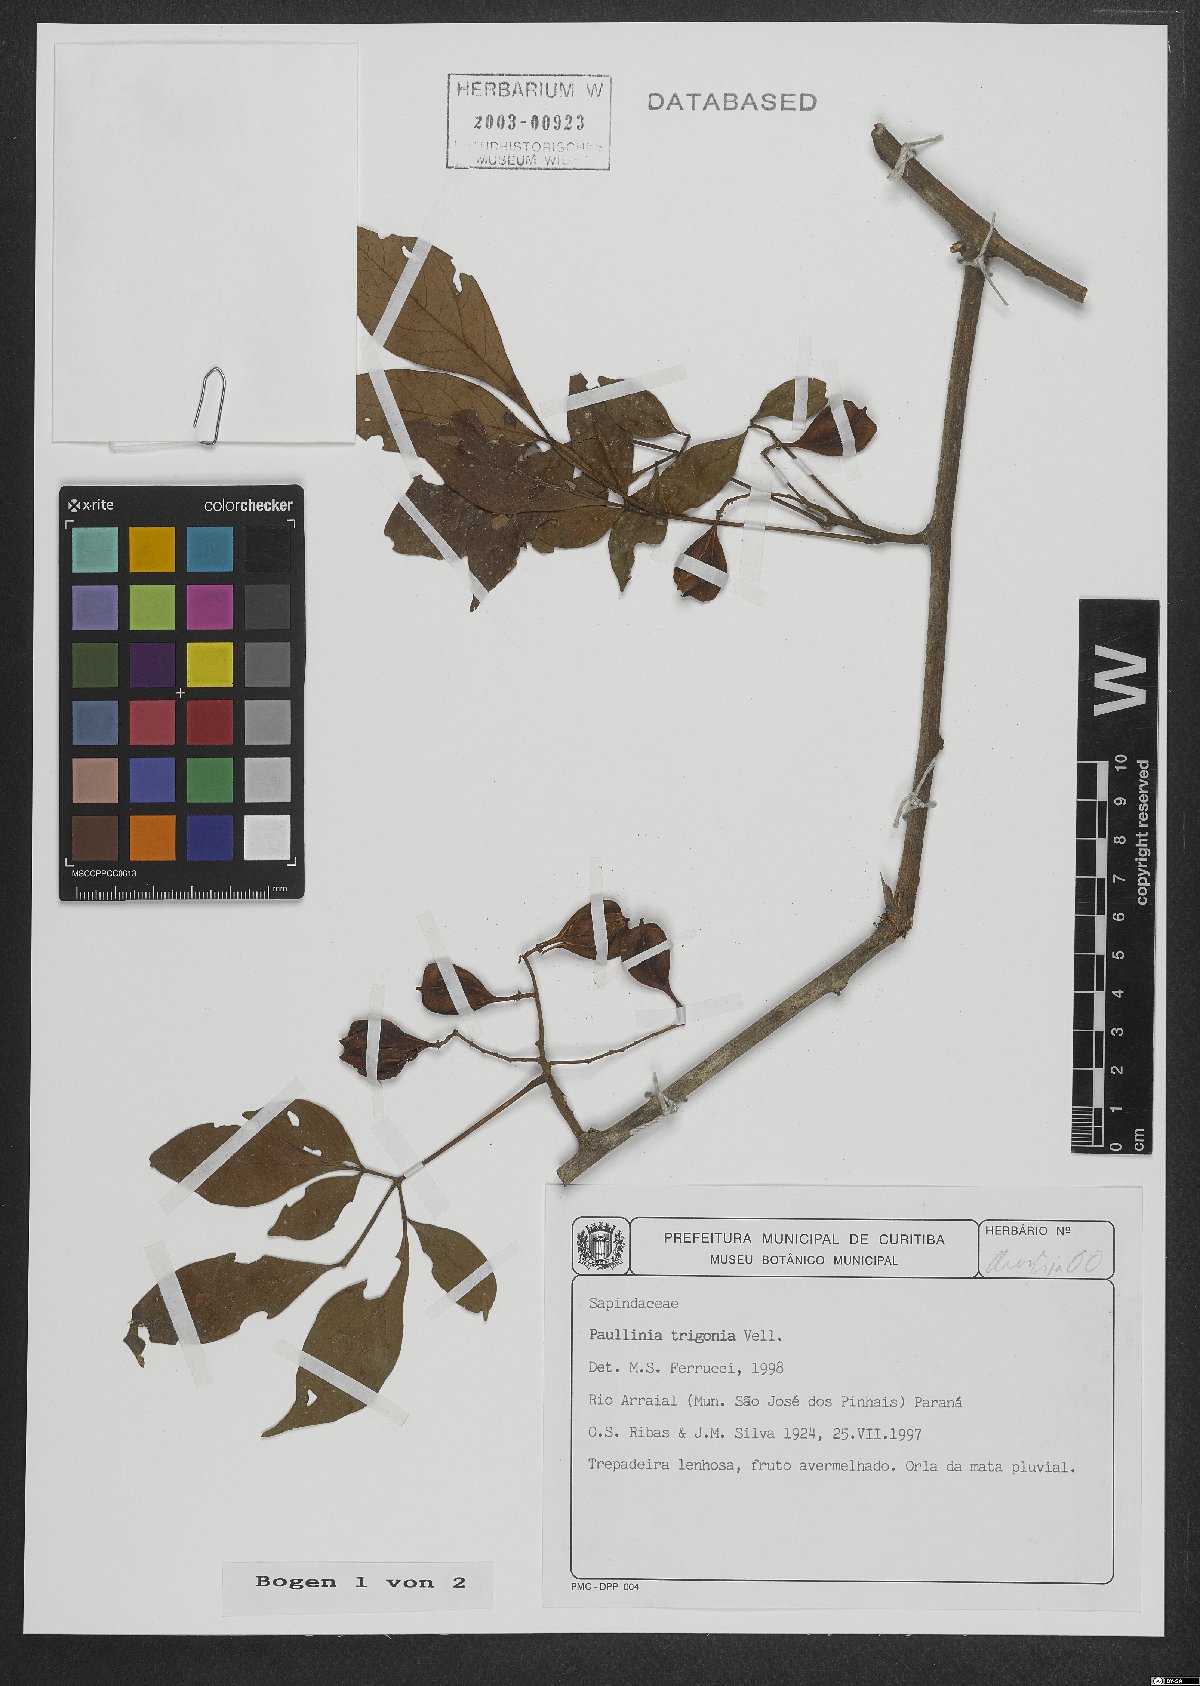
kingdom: Plantae
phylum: Tracheophyta
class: Magnoliopsida
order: Sapindales
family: Sapindaceae
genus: Paullinia
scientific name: Paullinia trigonia
